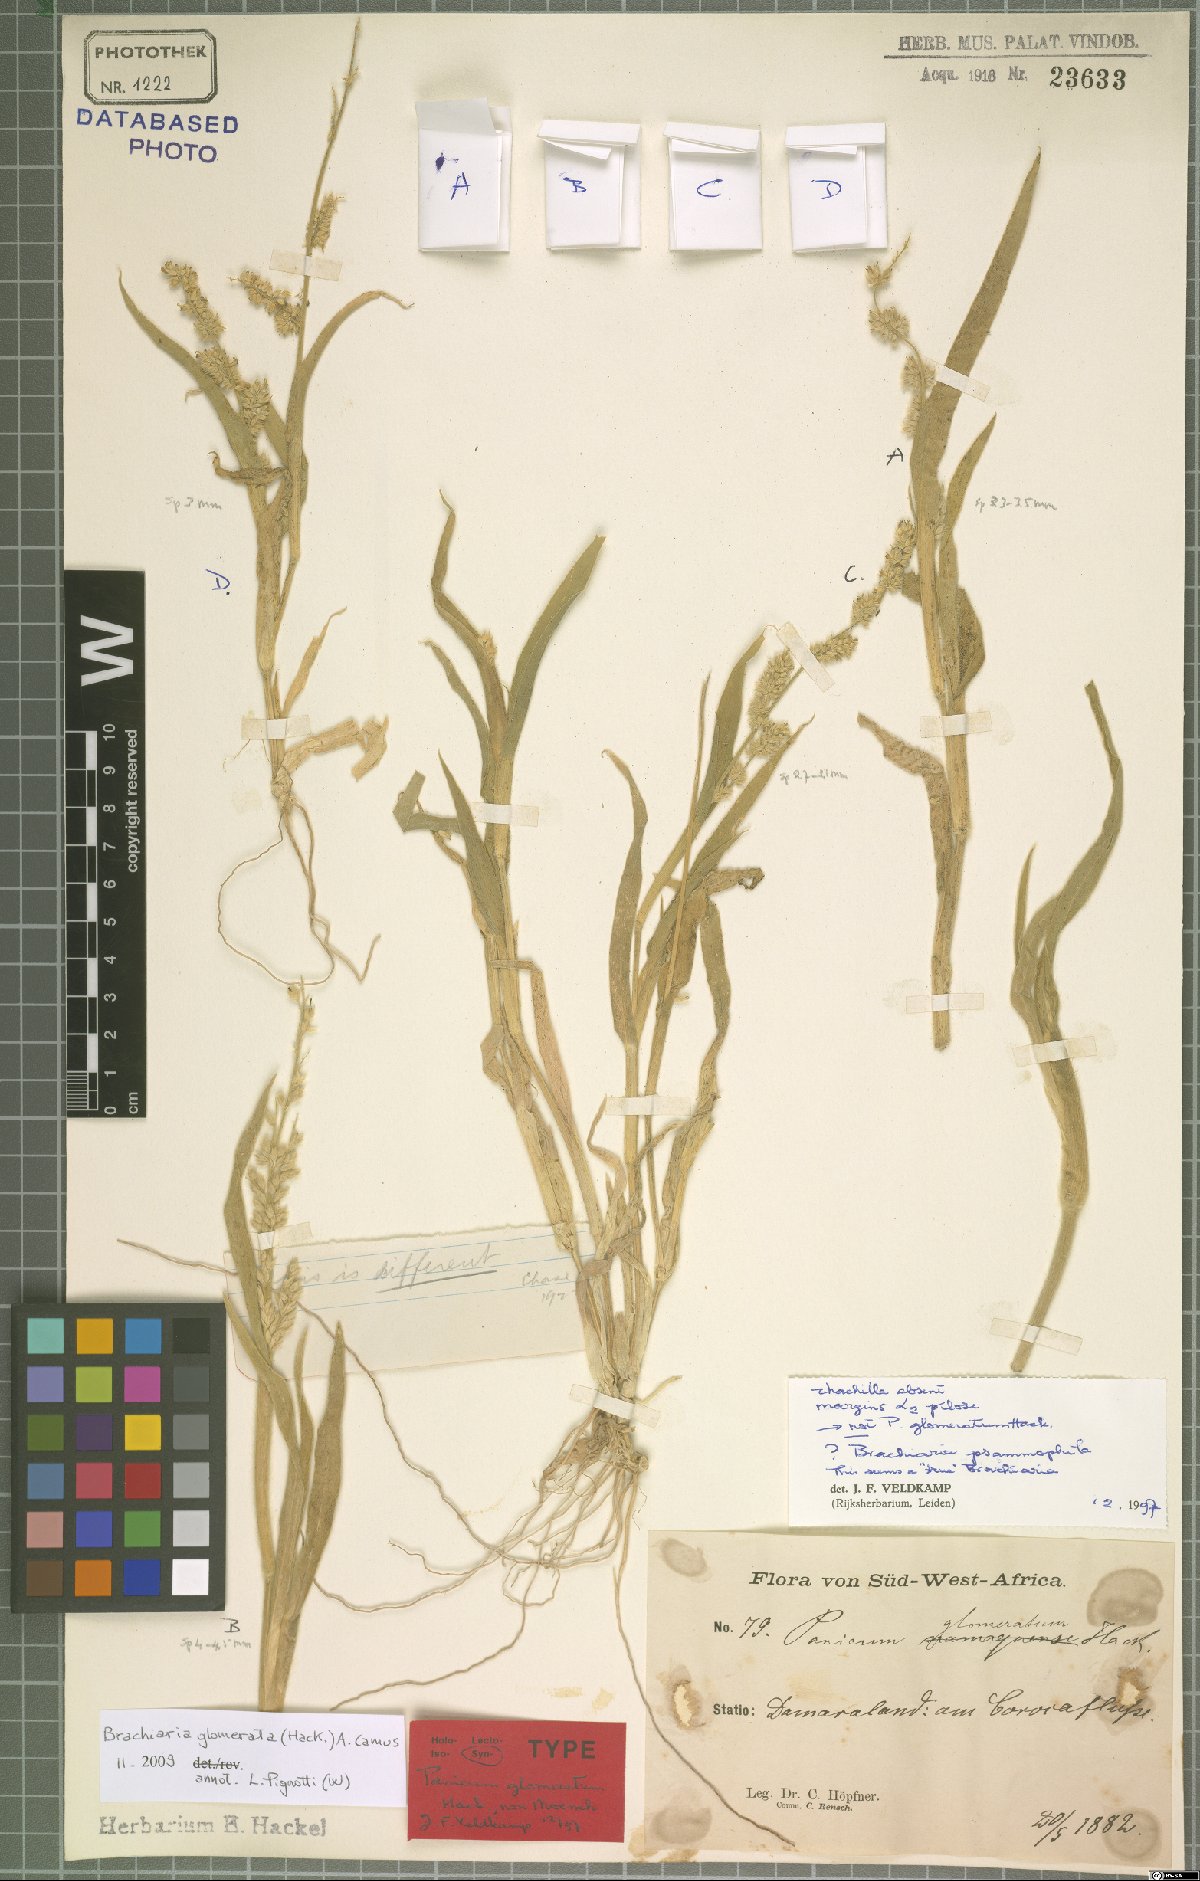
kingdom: Plantae
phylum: Tracheophyta
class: Liliopsida
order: Poales
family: Poaceae
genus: Urochloa
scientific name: Urochloa Brachiaria glomerata
